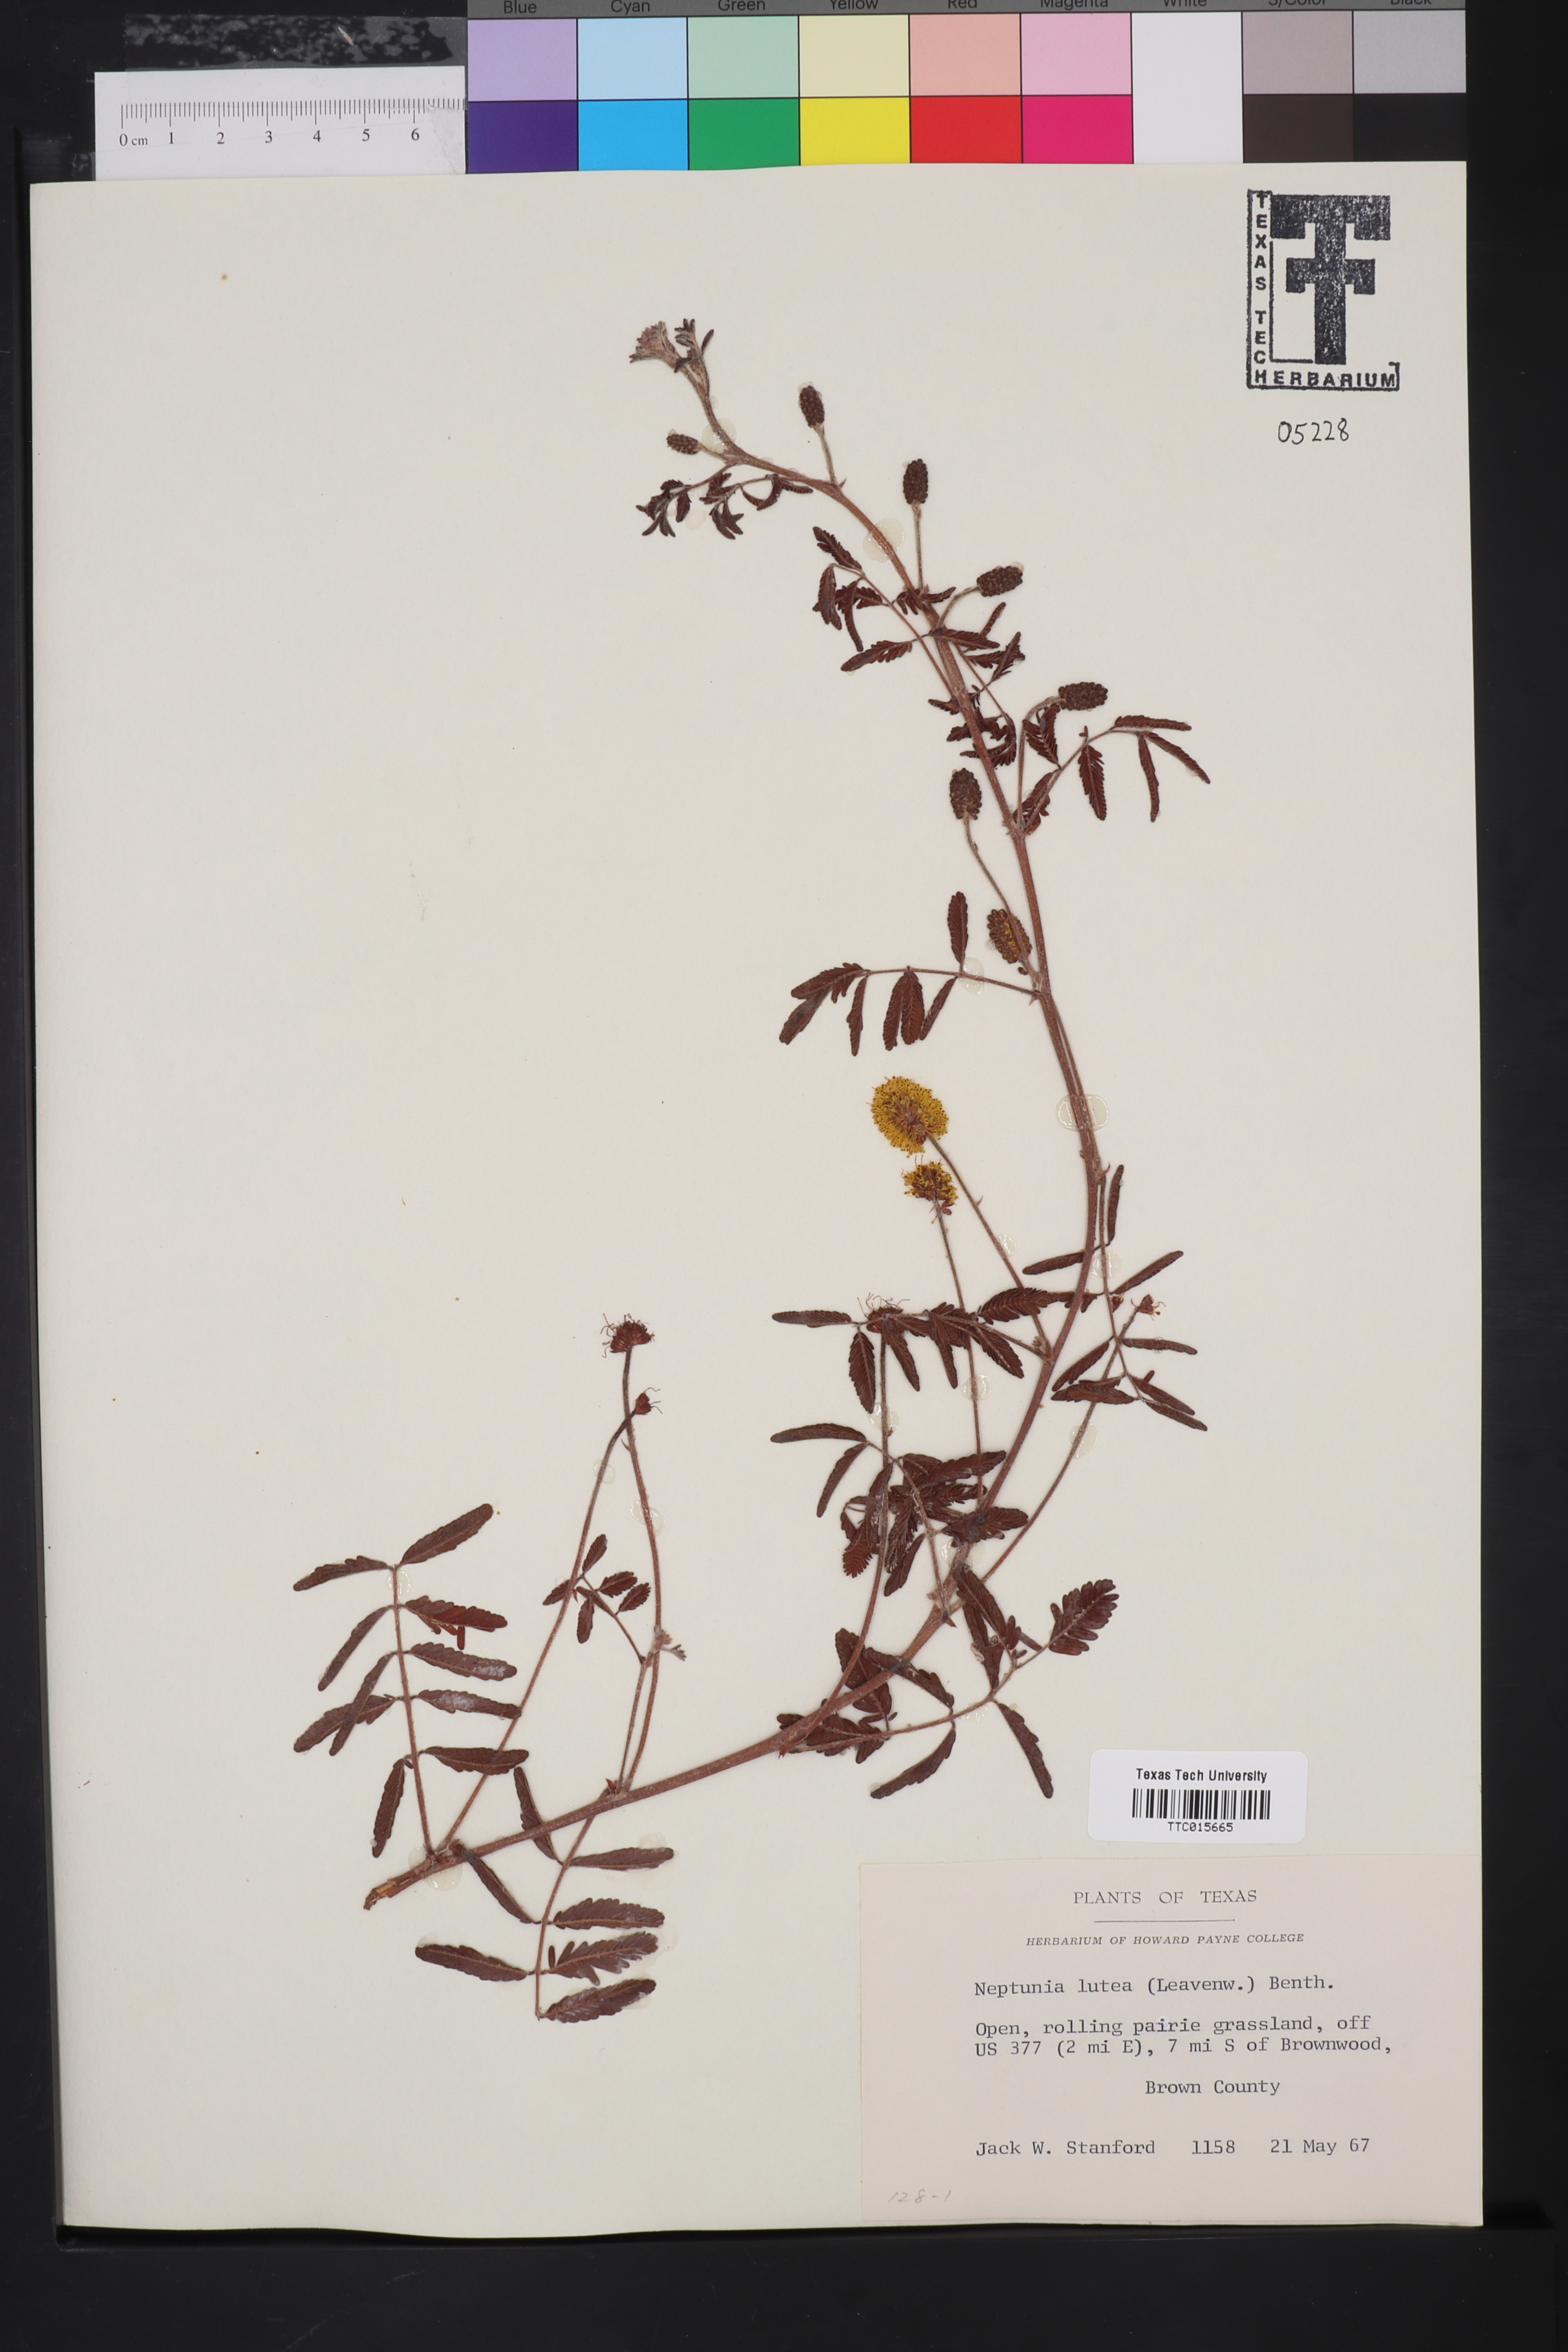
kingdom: Plantae
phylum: Tracheophyta
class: Magnoliopsida
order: Fabales
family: Fabaceae
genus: Neptunia
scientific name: Neptunia lutea
